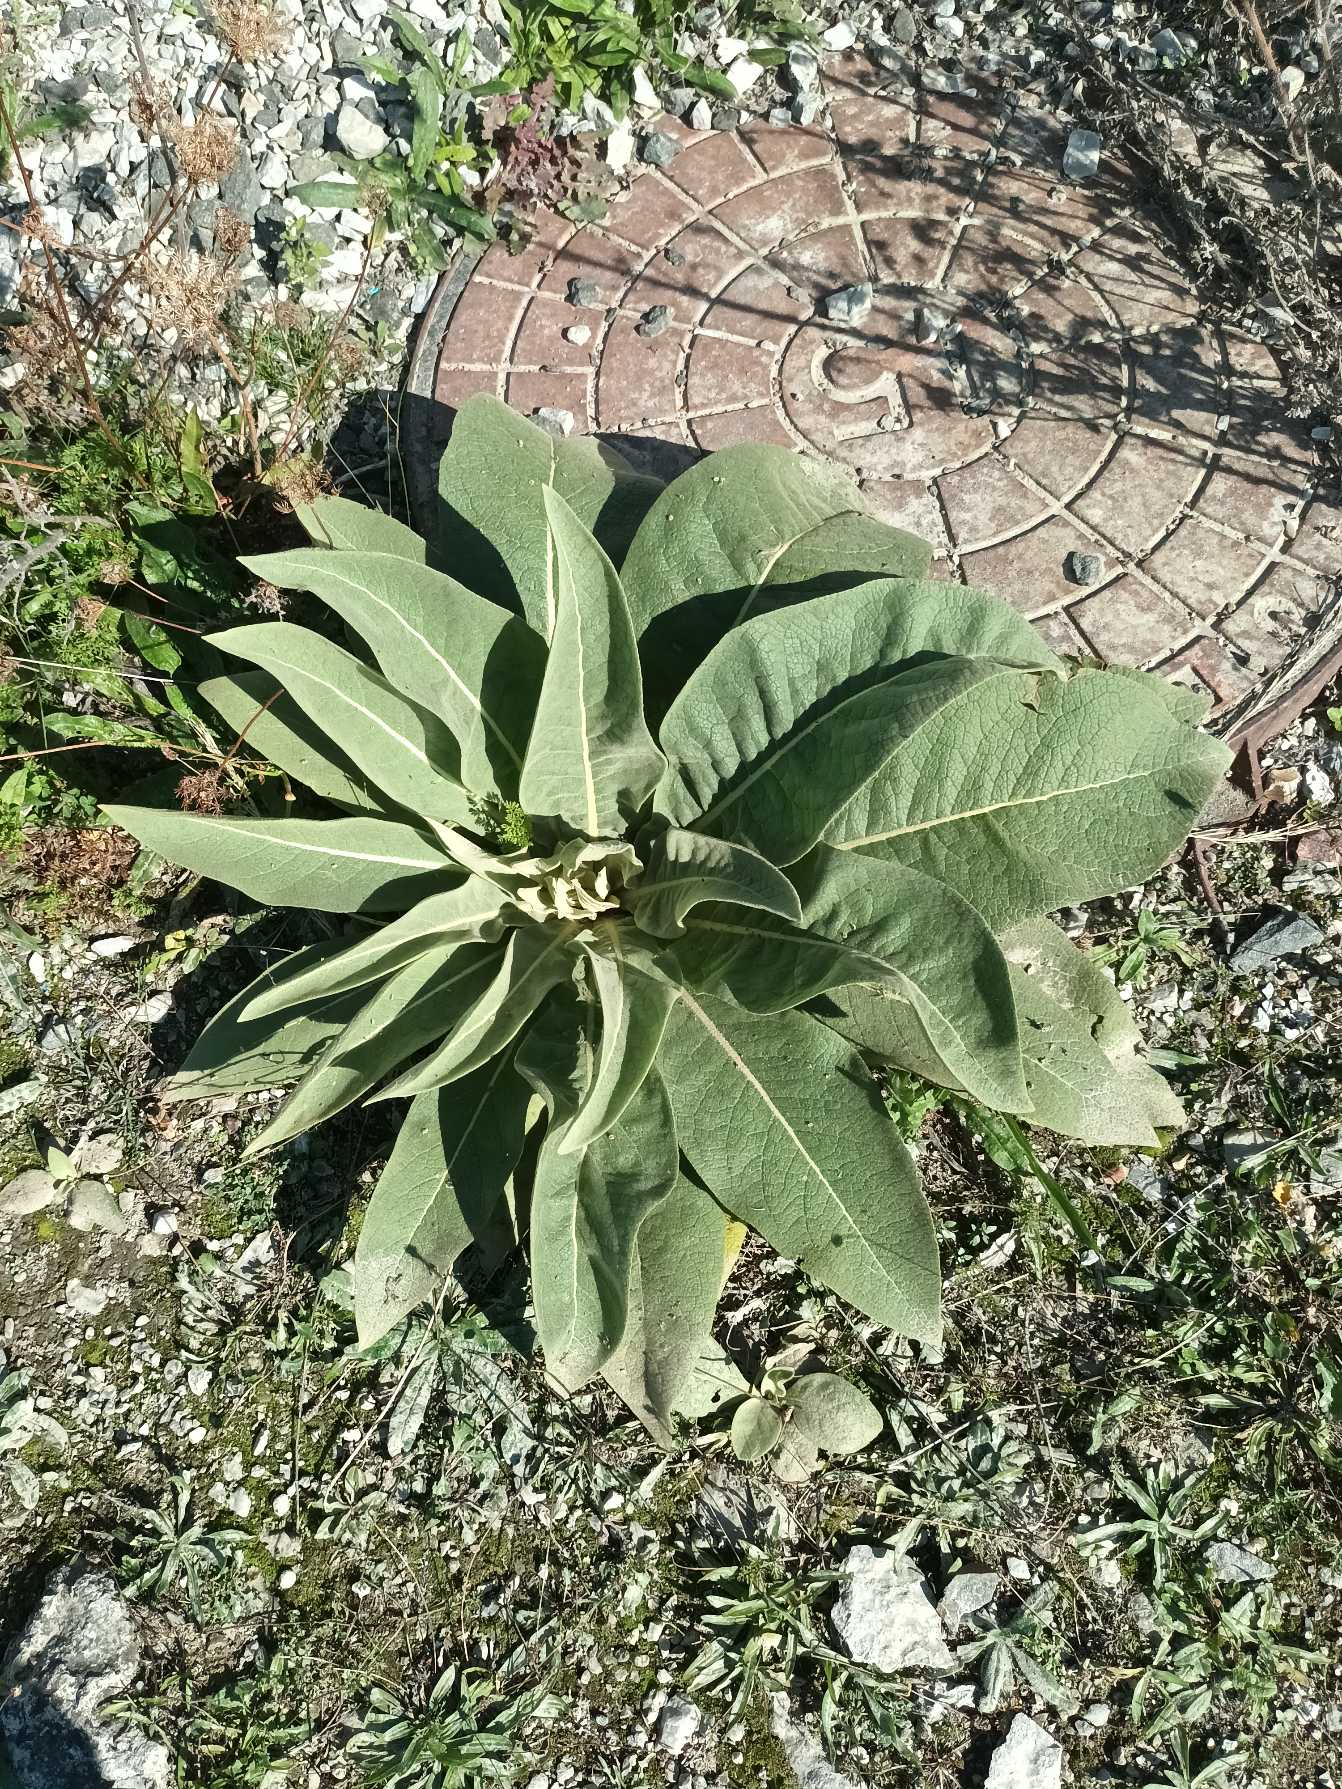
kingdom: Plantae
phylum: Tracheophyta
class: Magnoliopsida
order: Lamiales
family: Scrophulariaceae
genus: Verbascum
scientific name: Verbascum speciosum
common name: Kandelaber-kongelys
